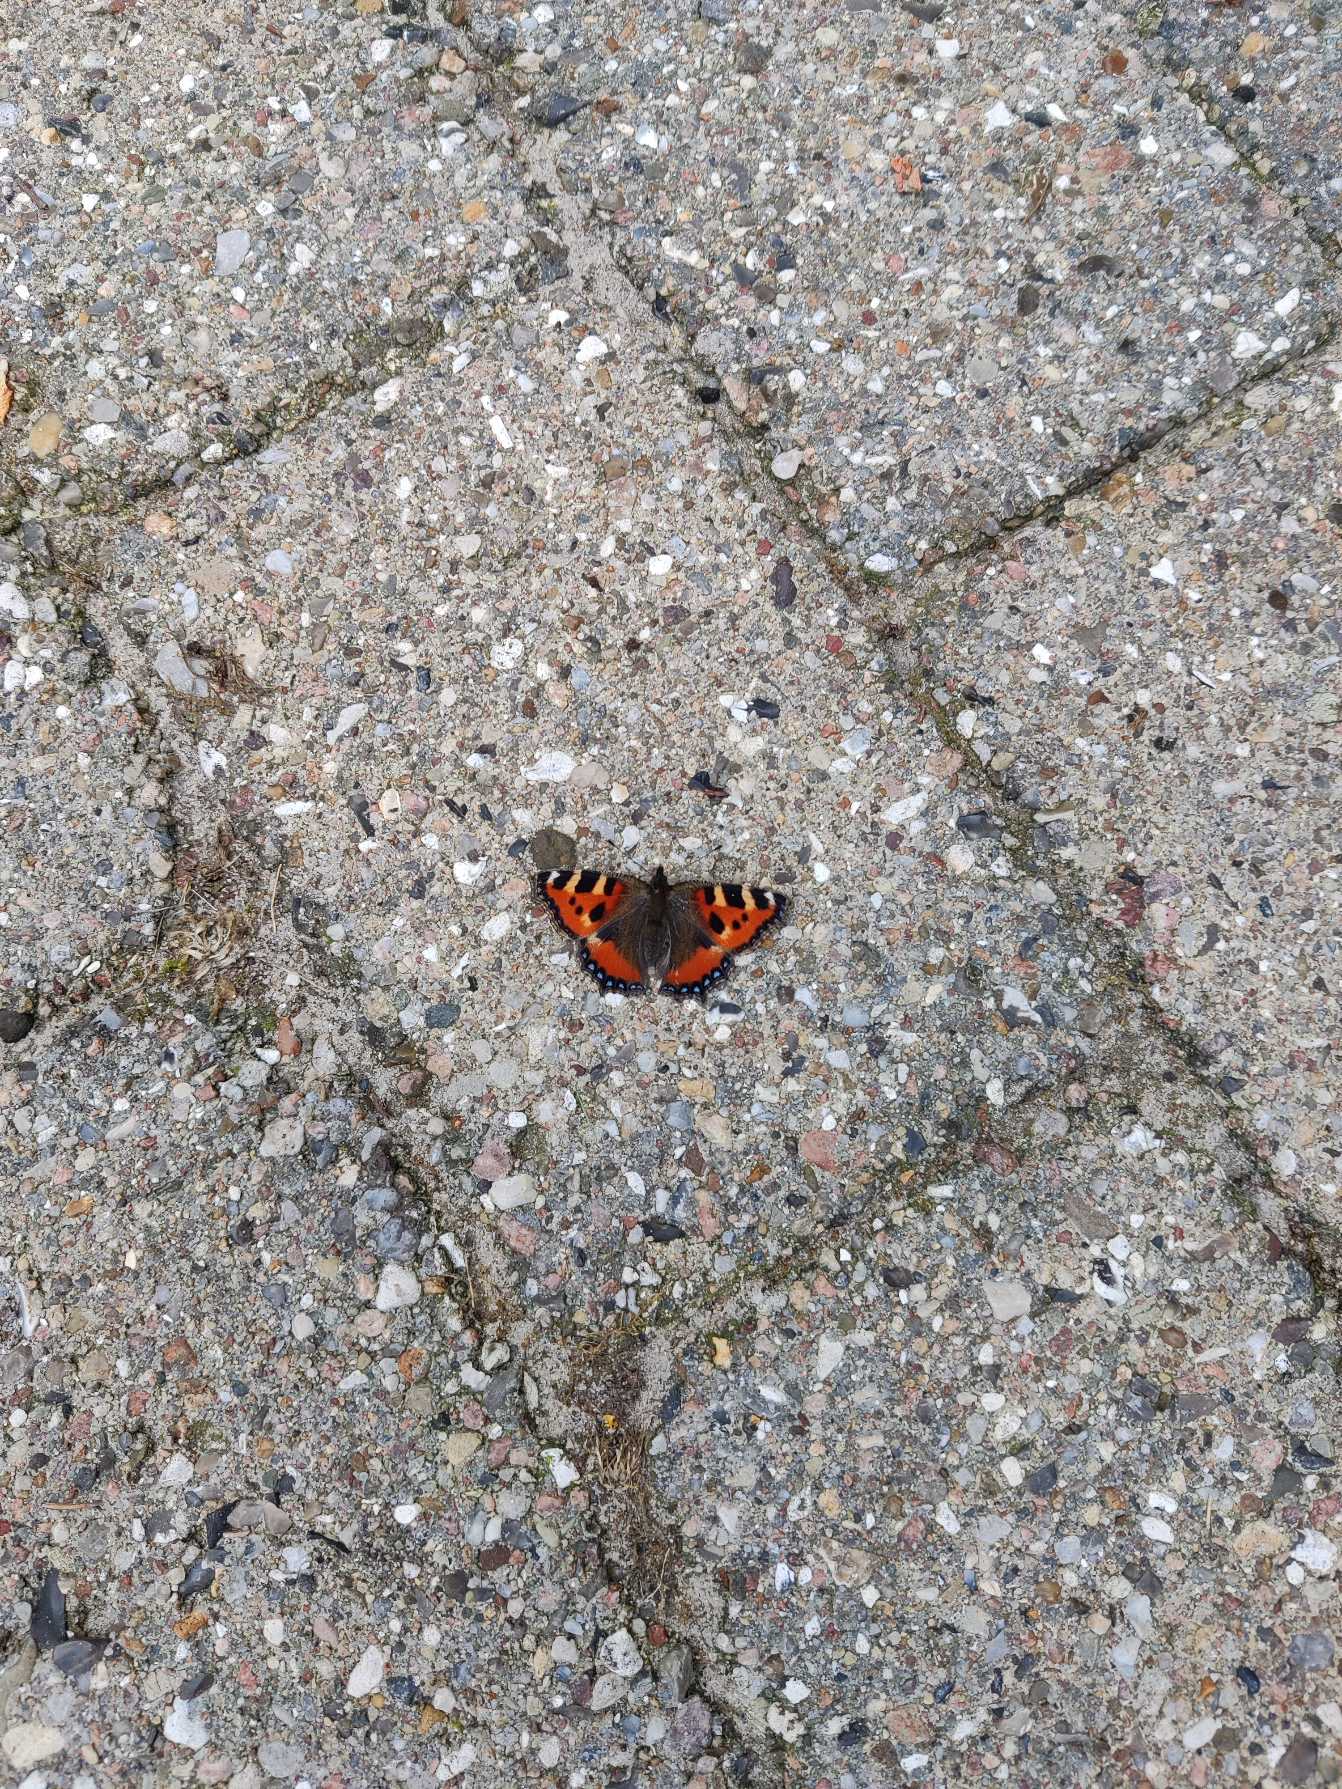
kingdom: Animalia
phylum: Arthropoda
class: Insecta
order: Lepidoptera
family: Nymphalidae
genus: Aglais
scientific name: Aglais urticae
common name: Nældens takvinge
